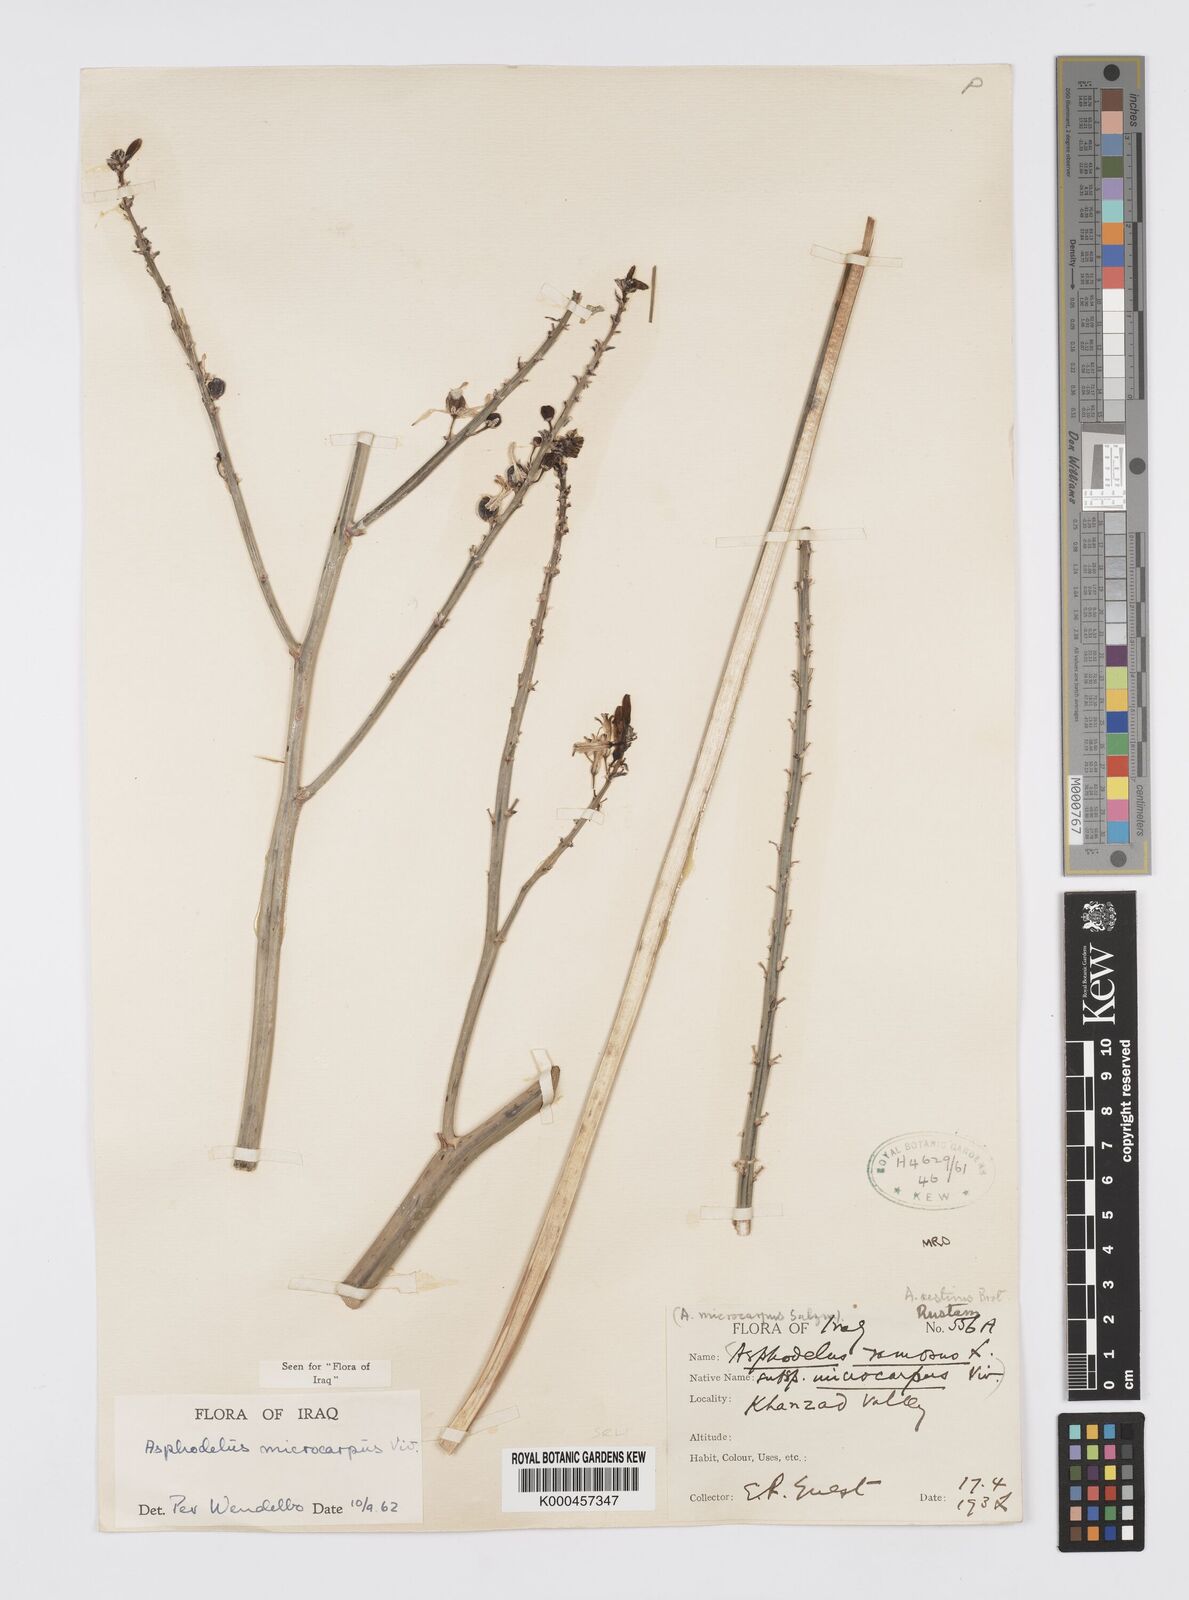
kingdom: Plantae
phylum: Tracheophyta
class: Liliopsida
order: Asparagales
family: Asphodelaceae
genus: Asphodelus
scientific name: Asphodelus aestivus
